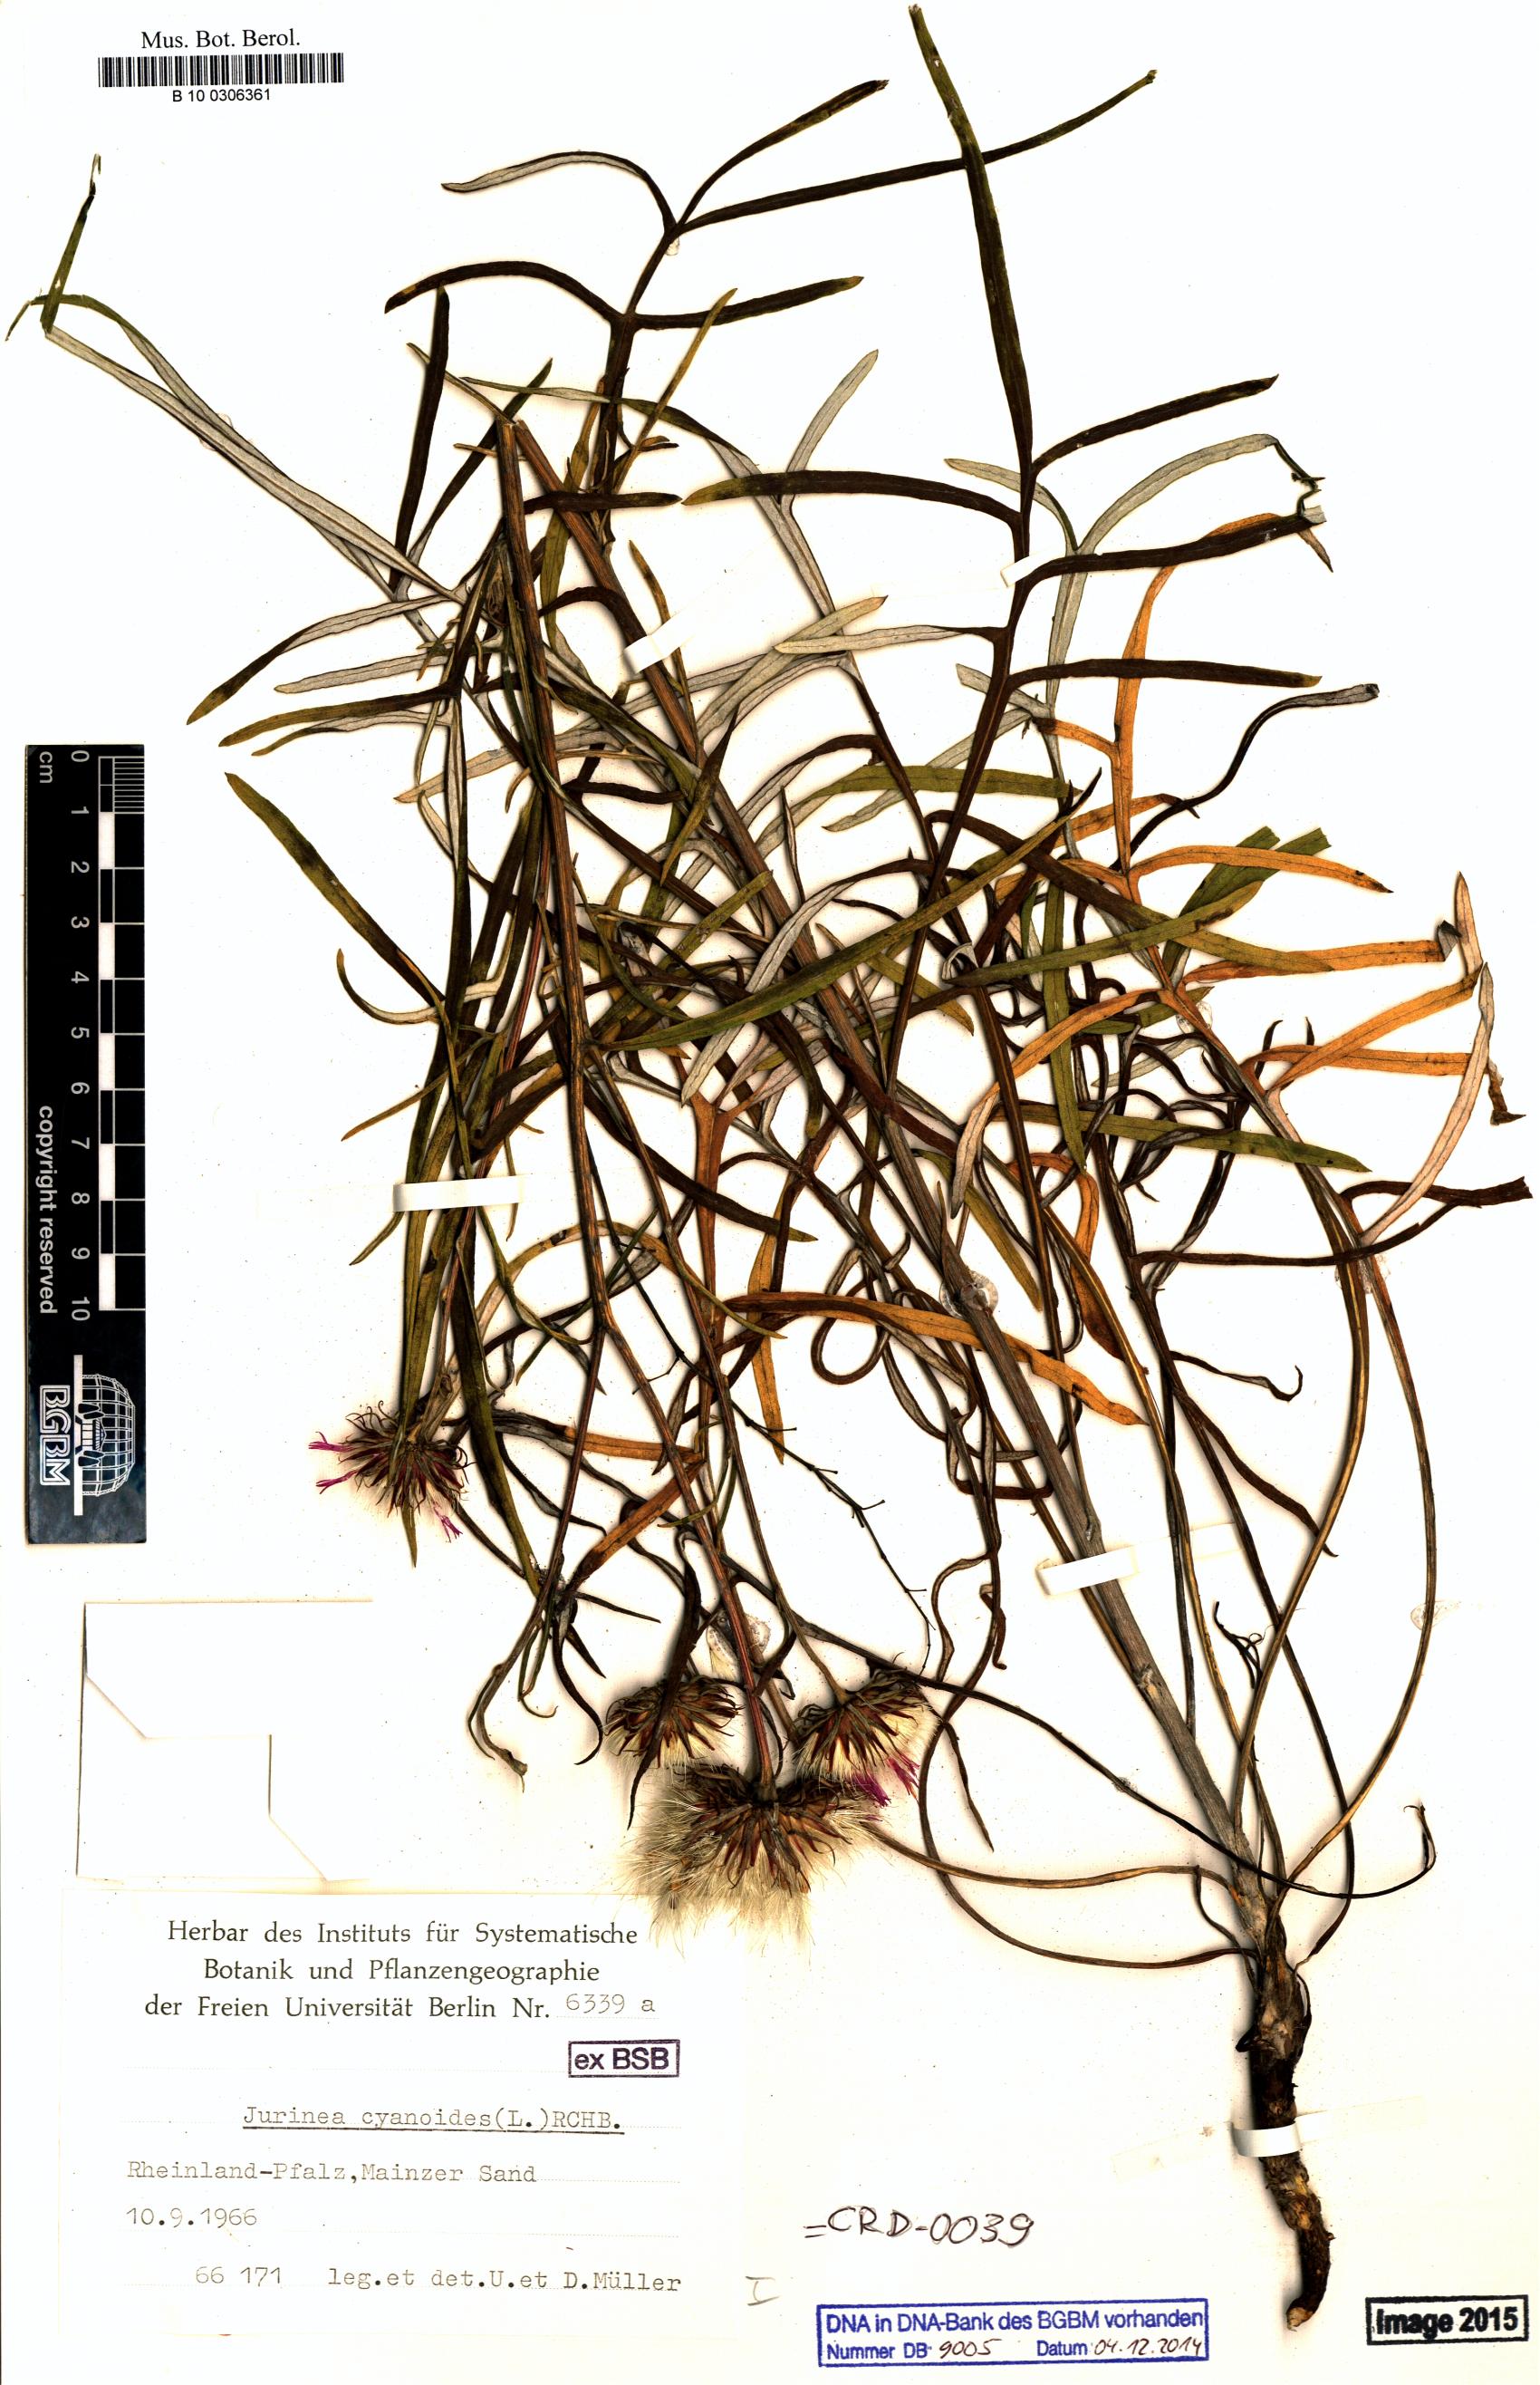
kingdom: Plantae
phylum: Tracheophyta
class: Magnoliopsida
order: Asterales
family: Asteraceae
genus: Jurinea
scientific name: Jurinea cyanoides
